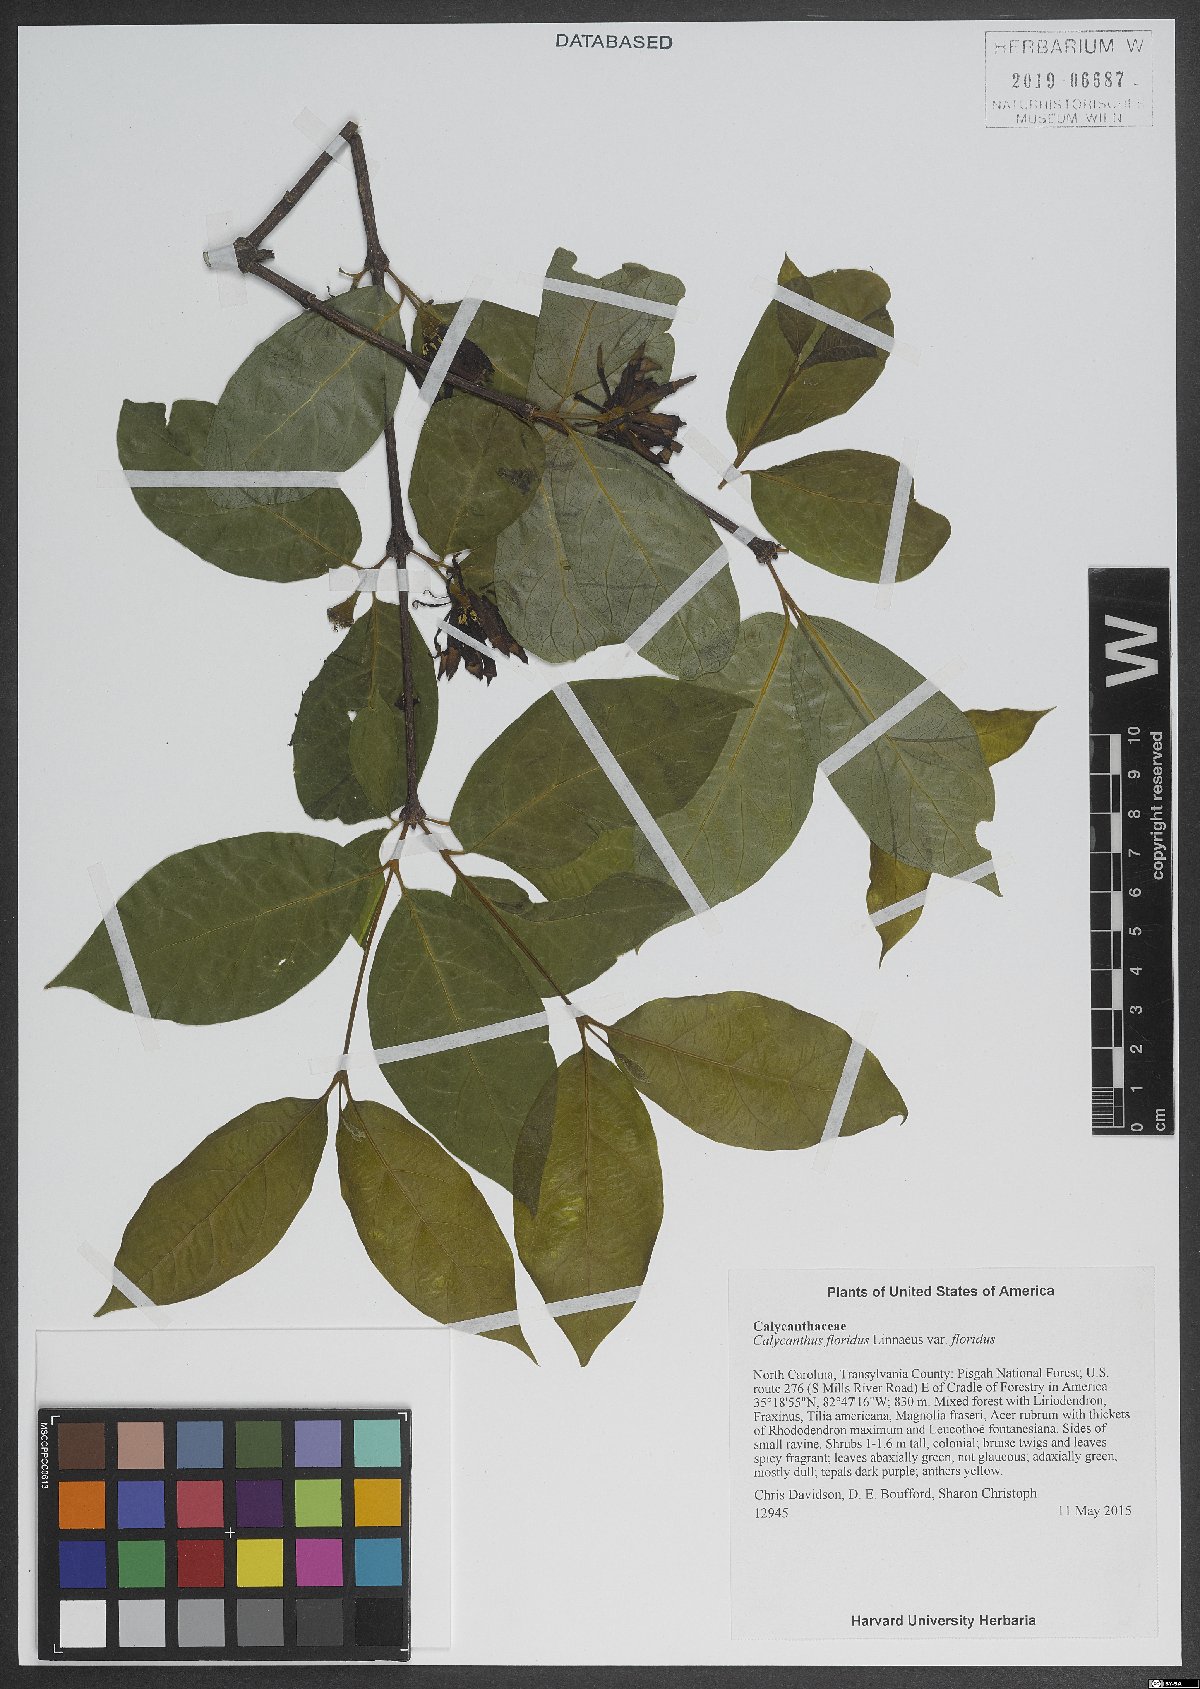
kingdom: Plantae
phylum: Tracheophyta
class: Magnoliopsida
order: Laurales
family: Calycanthaceae
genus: Calycanthus
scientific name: Calycanthus floridus
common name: Carolina-allspice
